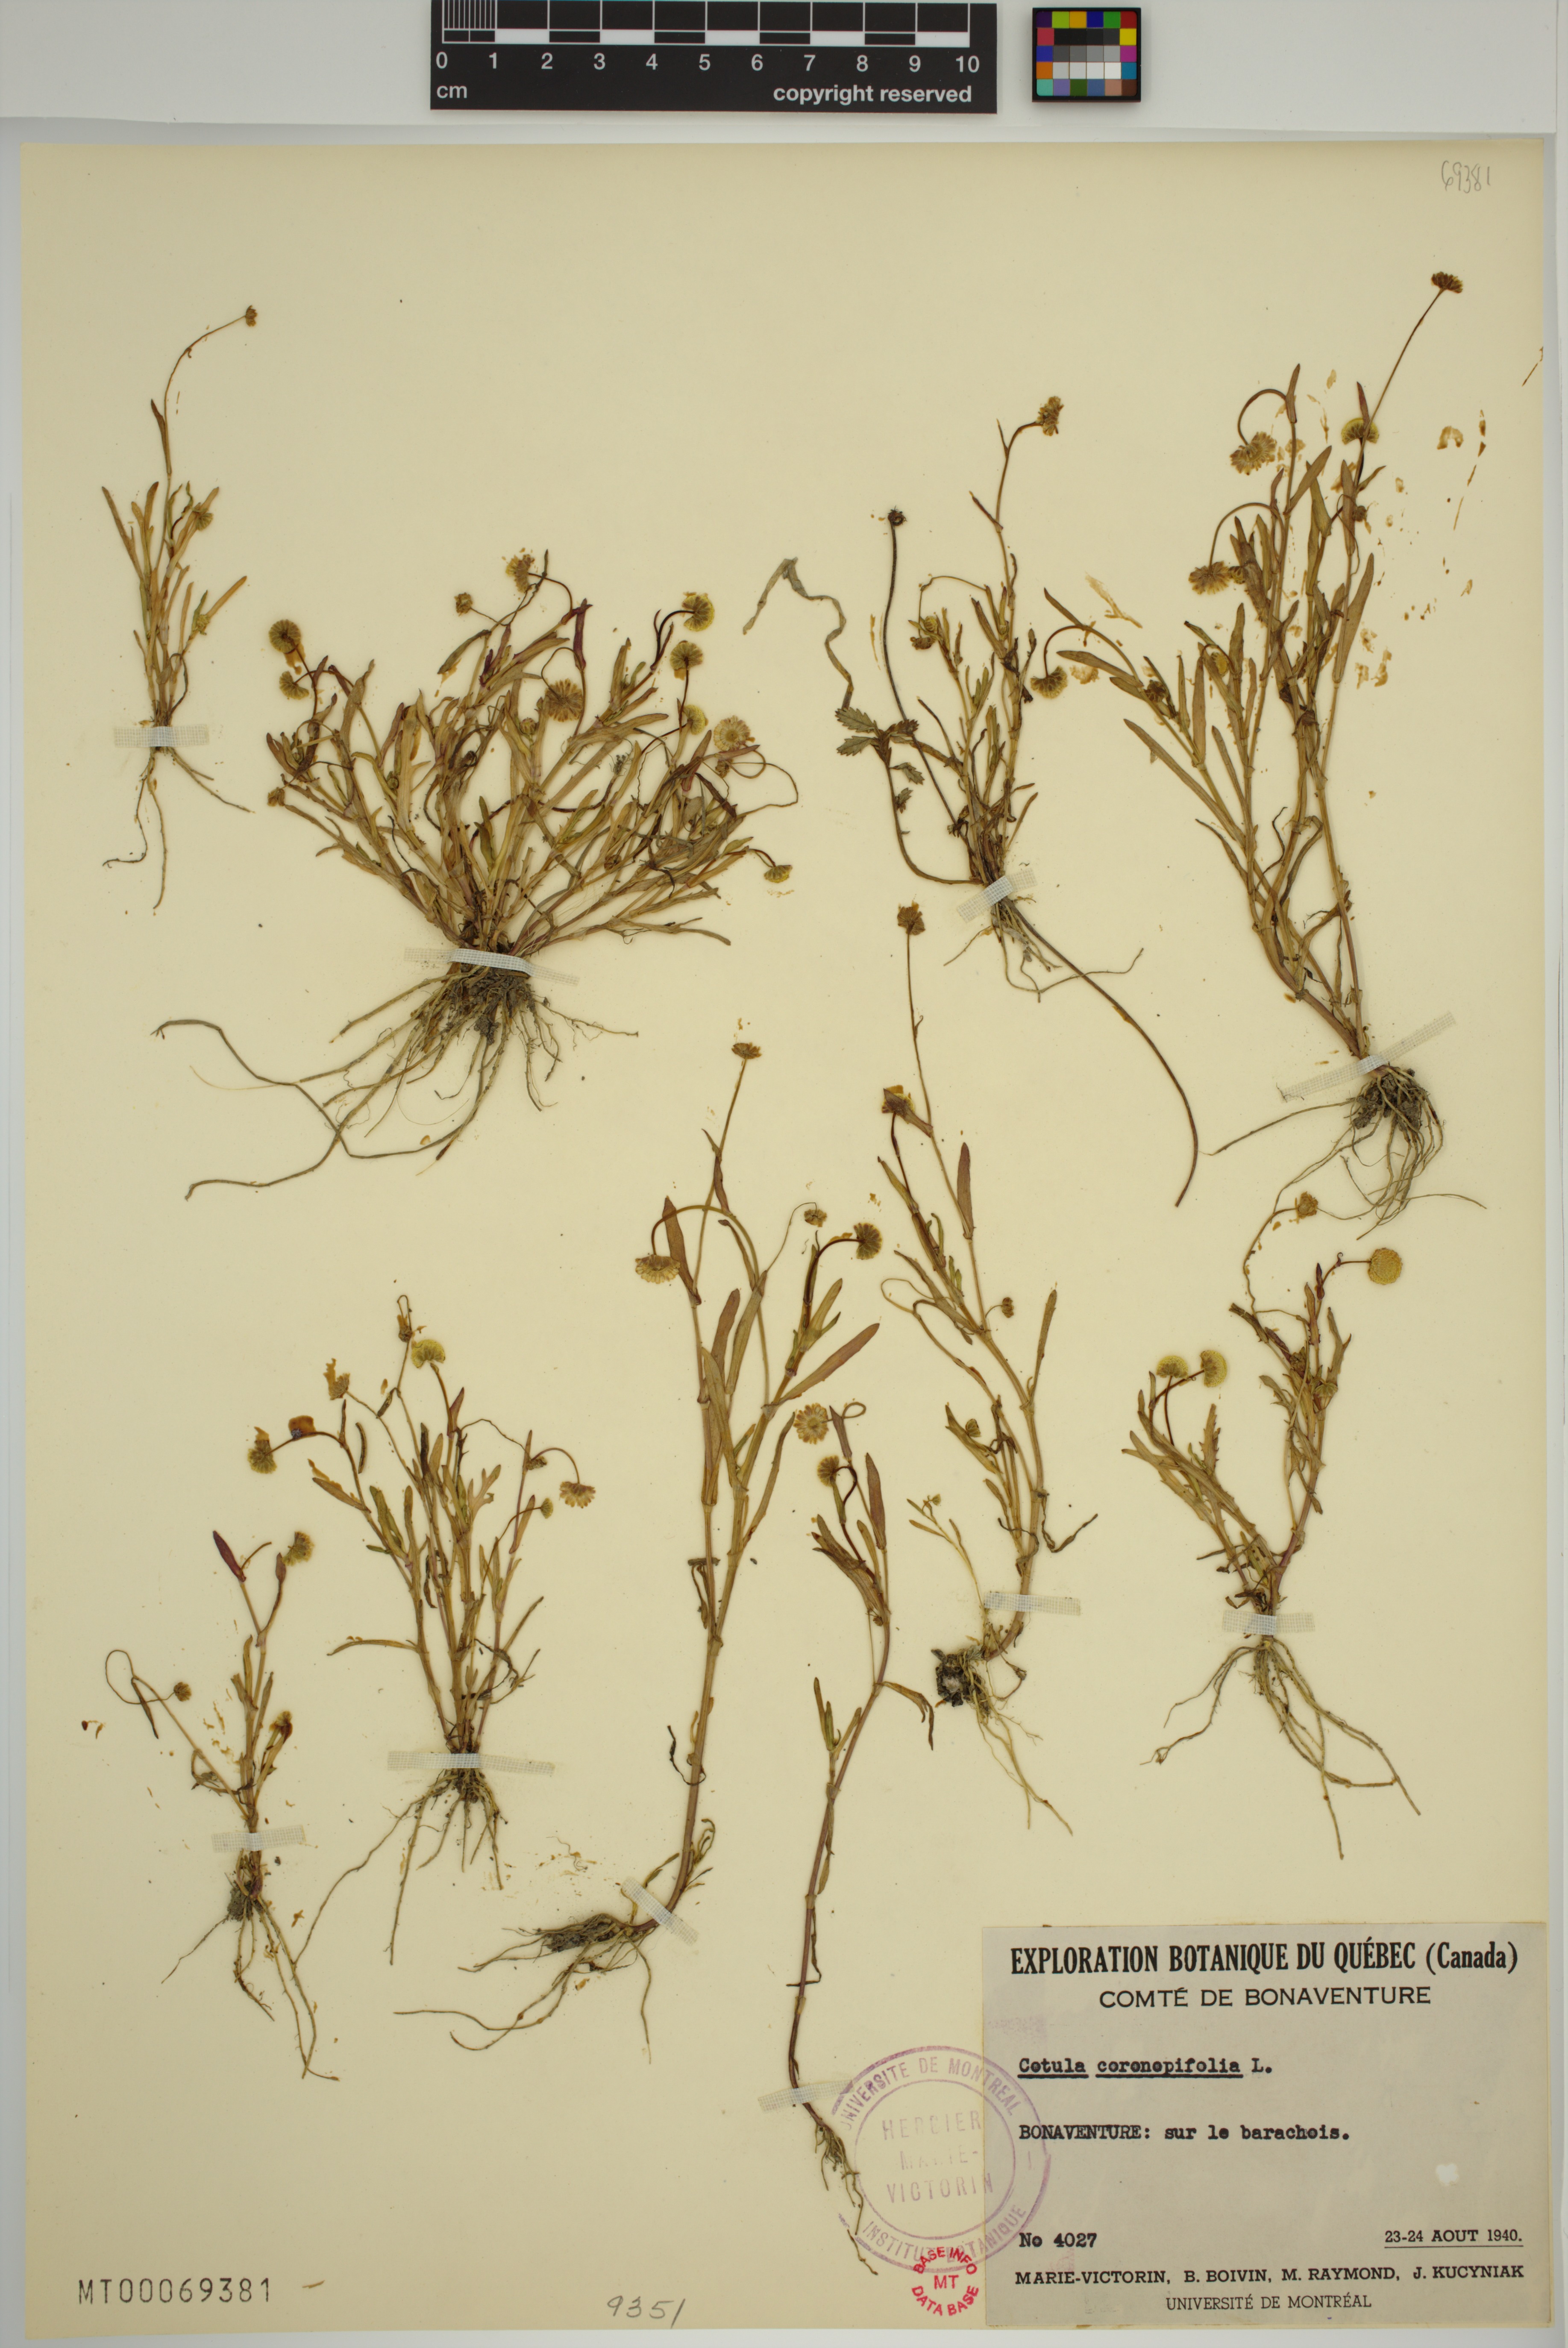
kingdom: Plantae
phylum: Tracheophyta
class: Magnoliopsida
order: Asterales
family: Asteraceae
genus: Cotula
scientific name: Cotula coronopifolia
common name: Buttonweed
